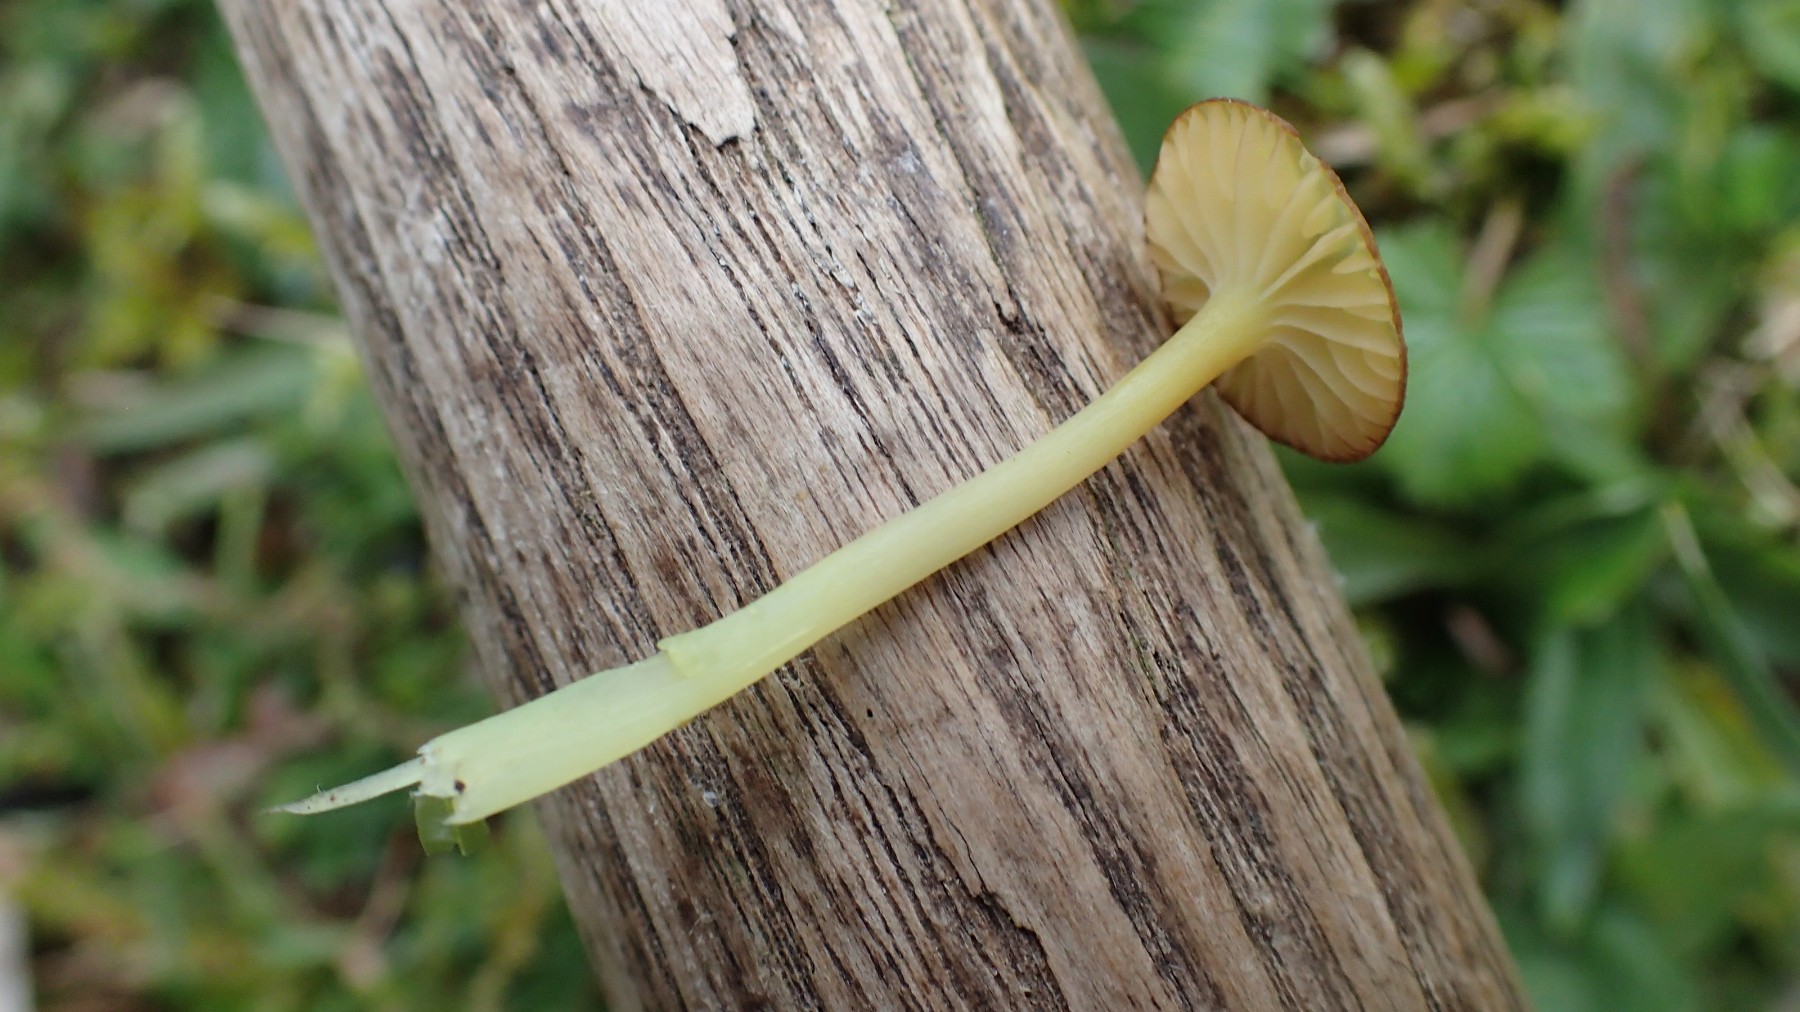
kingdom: Fungi
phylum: Basidiomycota
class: Agaricomycetes
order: Agaricales
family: Entolomataceae
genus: Entoloma
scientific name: Entoloma incanum
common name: grøngul rødblad
